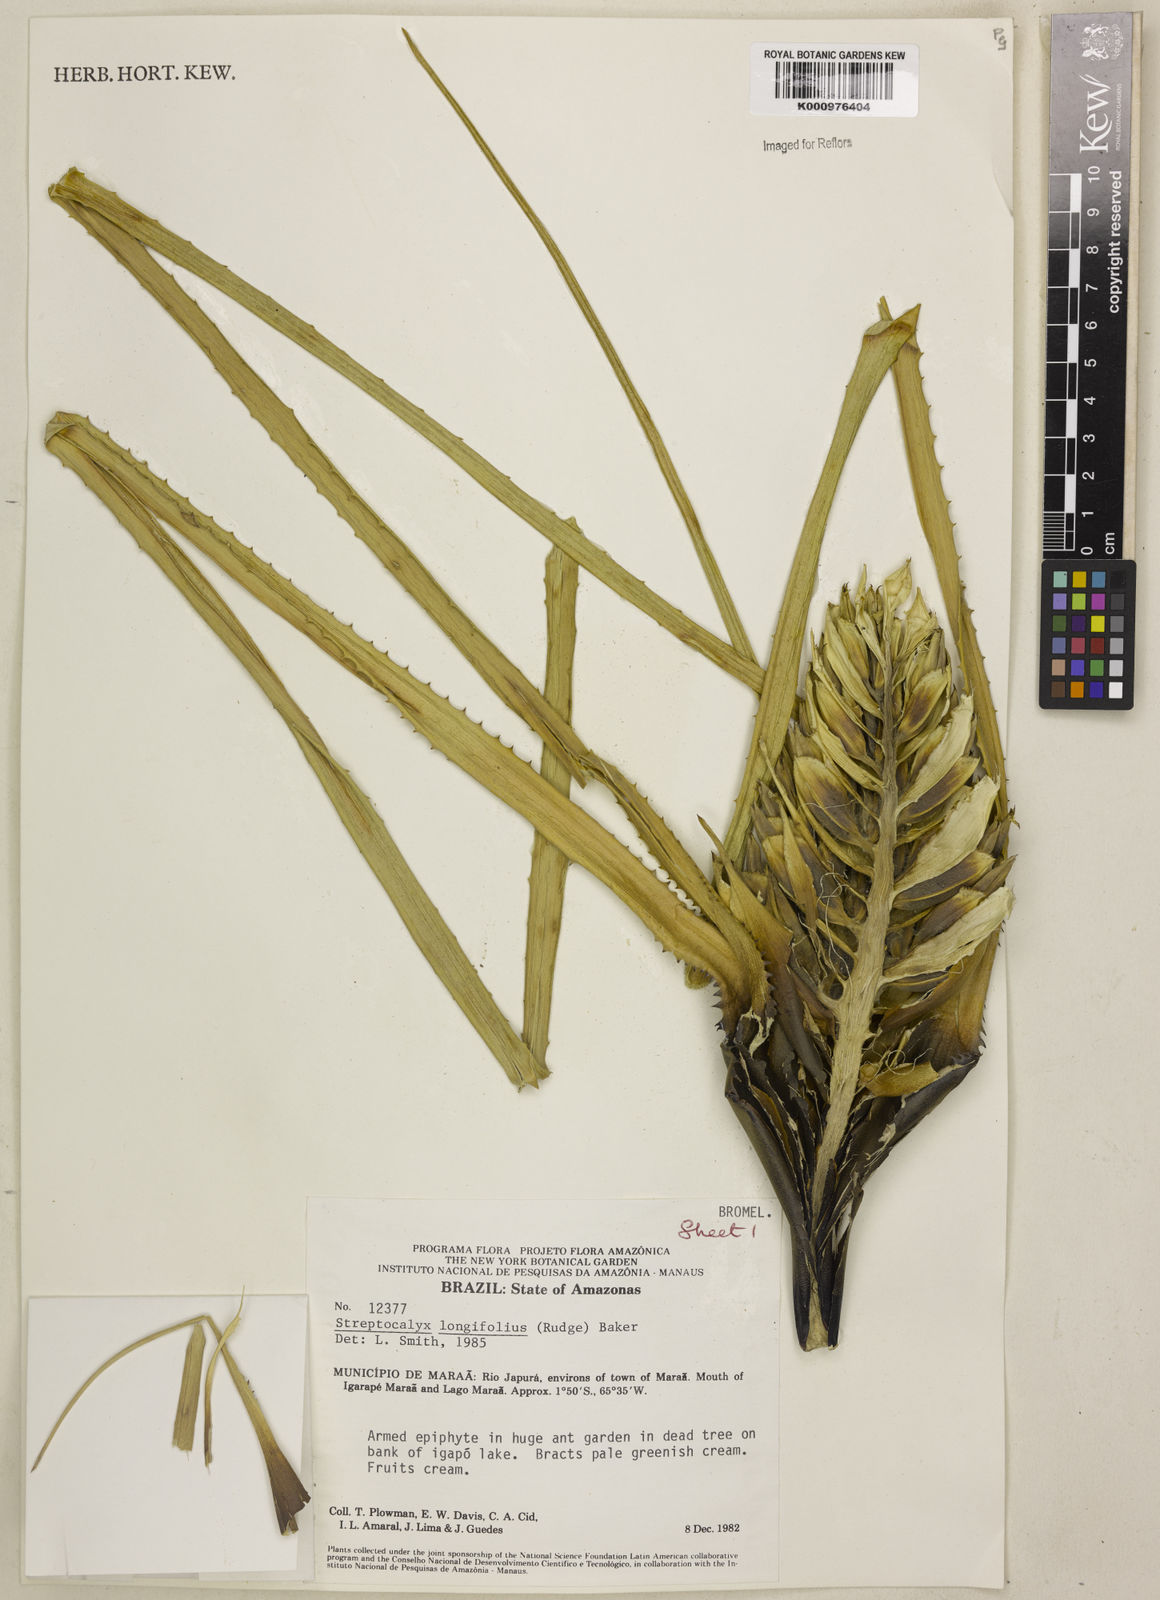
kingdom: Plantae
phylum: Tracheophyta
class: Liliopsida
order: Poales
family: Bromeliaceae
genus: Aechmea
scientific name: Aechmea longifolia
